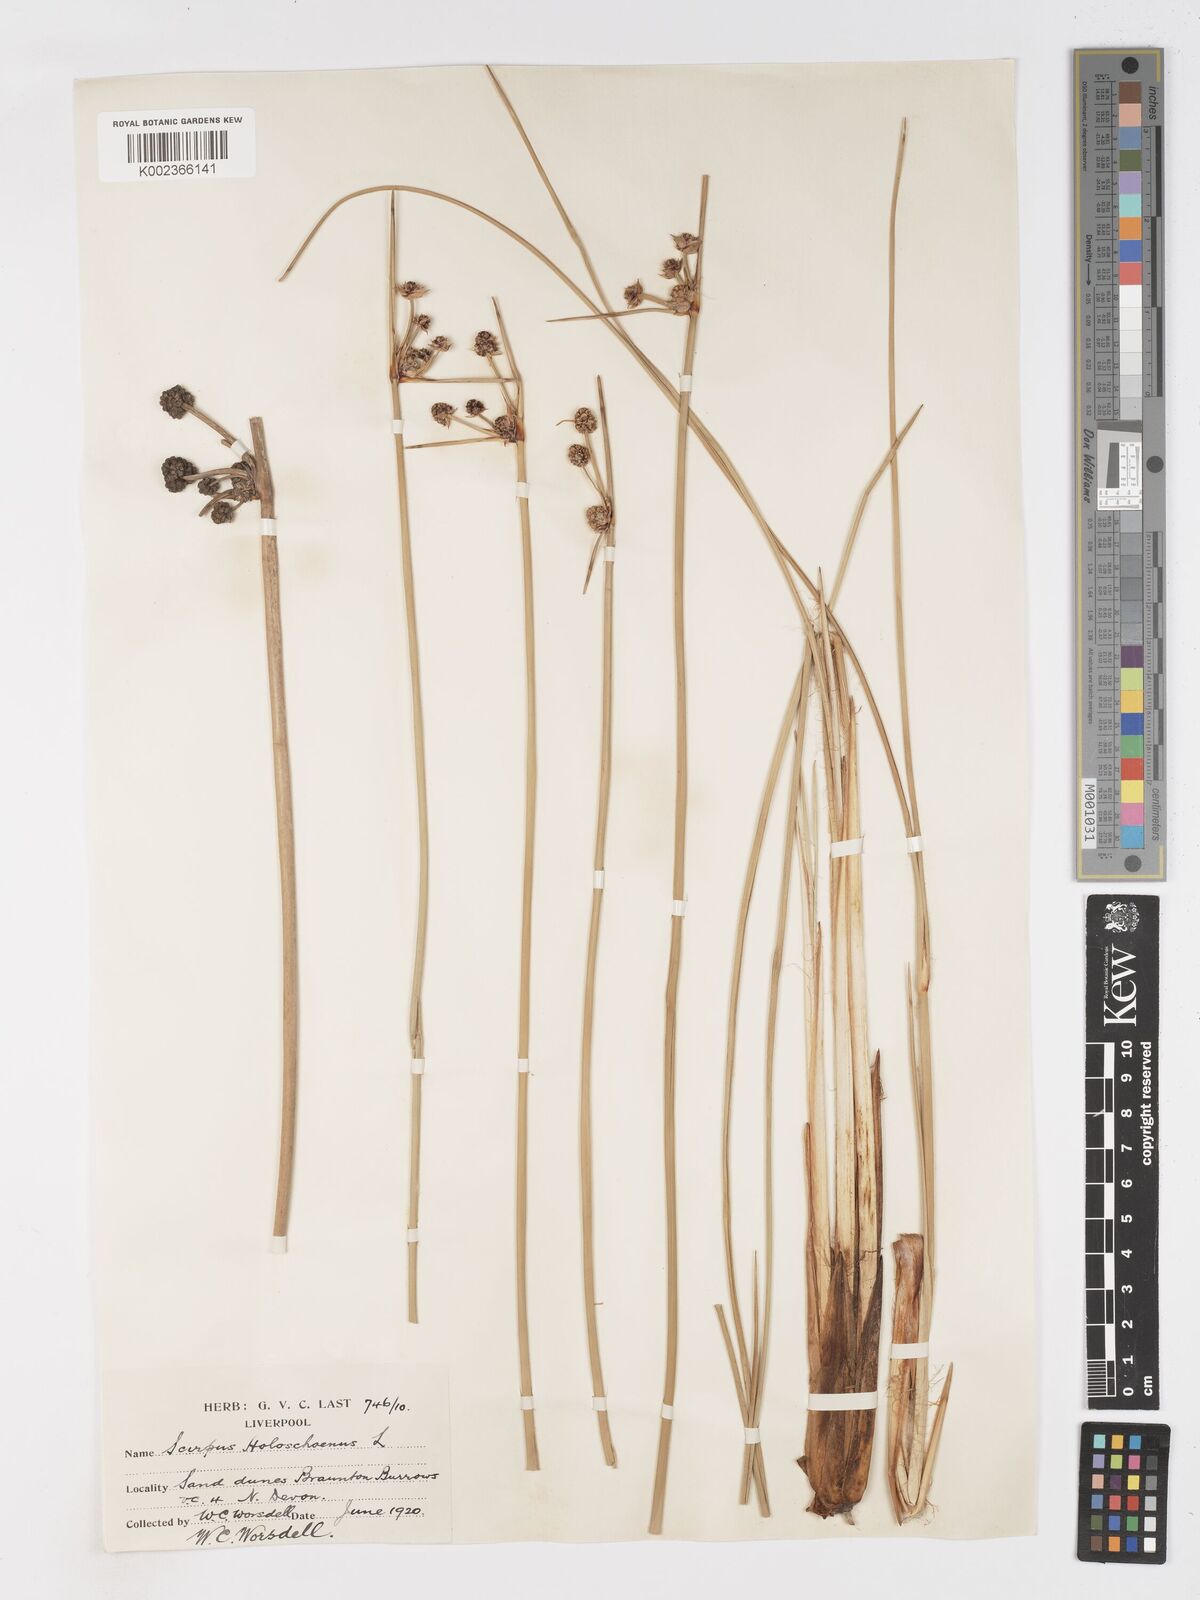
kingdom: Plantae
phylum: Tracheophyta
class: Liliopsida
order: Poales
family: Cyperaceae
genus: Scirpoides
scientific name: Scirpoides holoschoenus
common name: Round-headed club-rush
